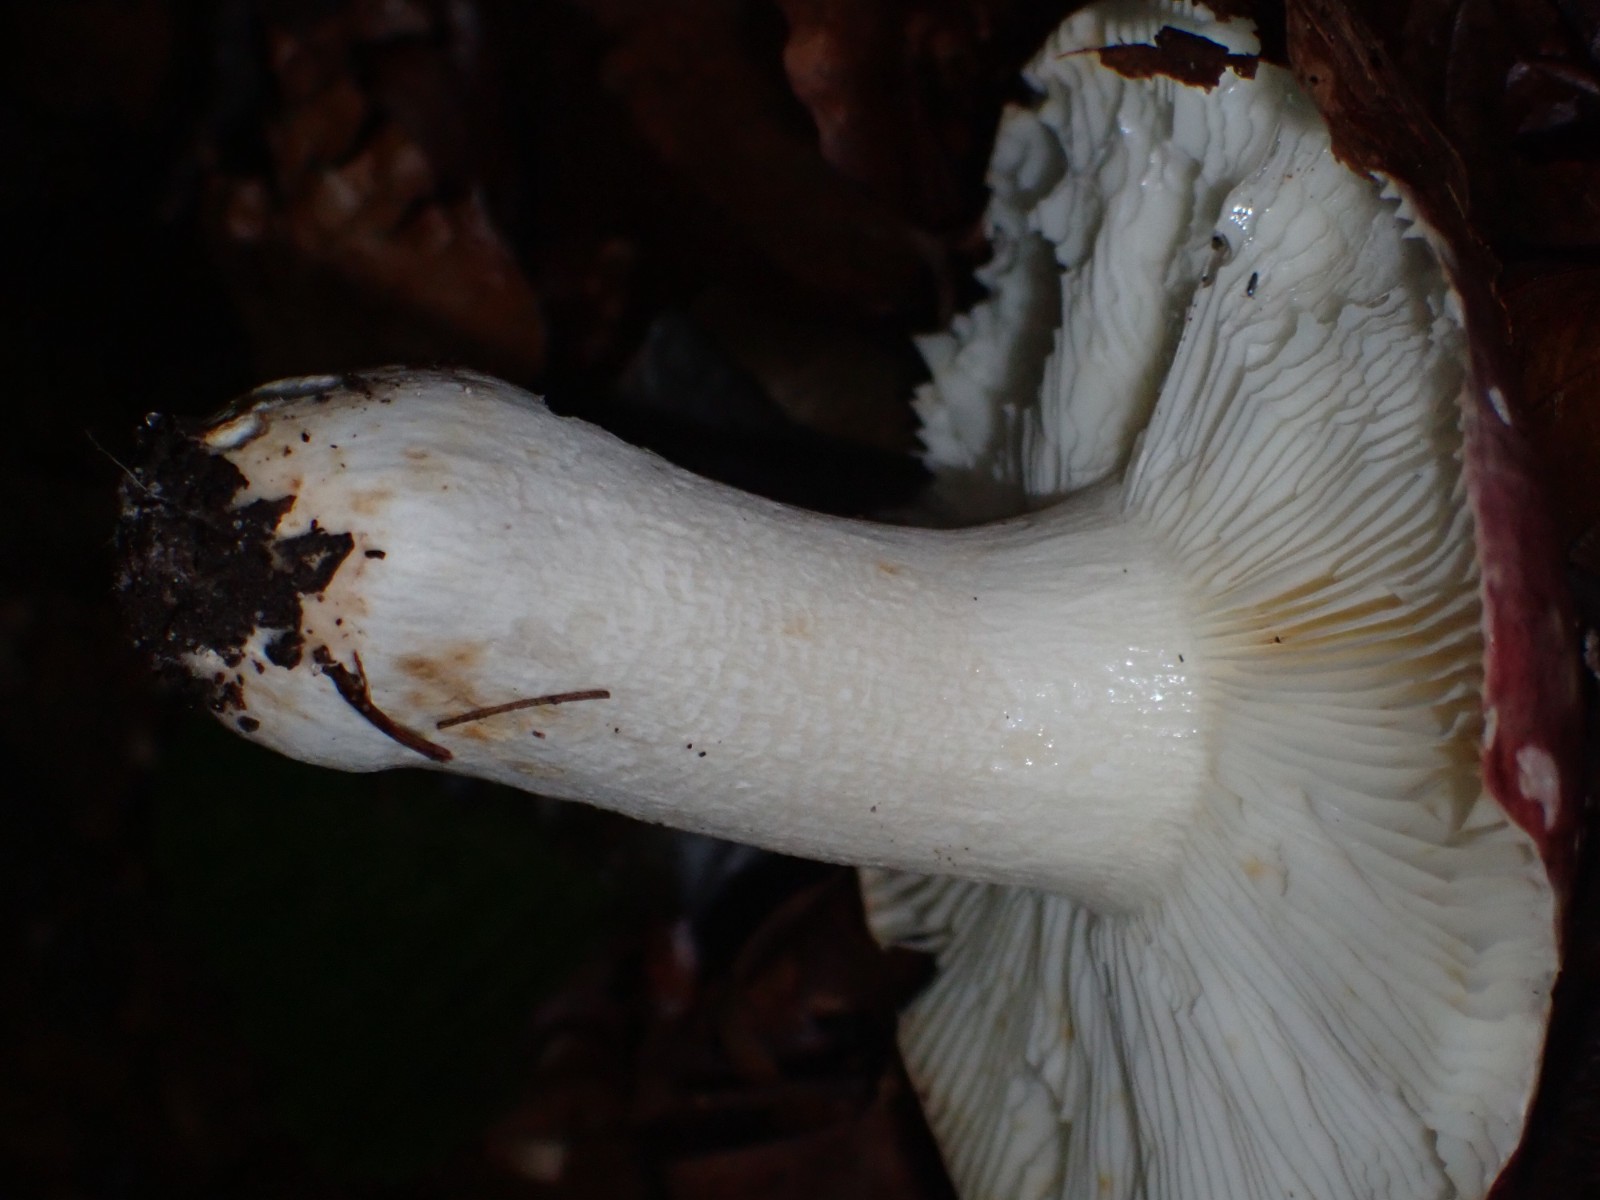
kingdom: Fungi
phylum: Basidiomycota
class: Agaricomycetes
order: Russulales
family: Russulaceae
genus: Russula
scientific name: Russula
